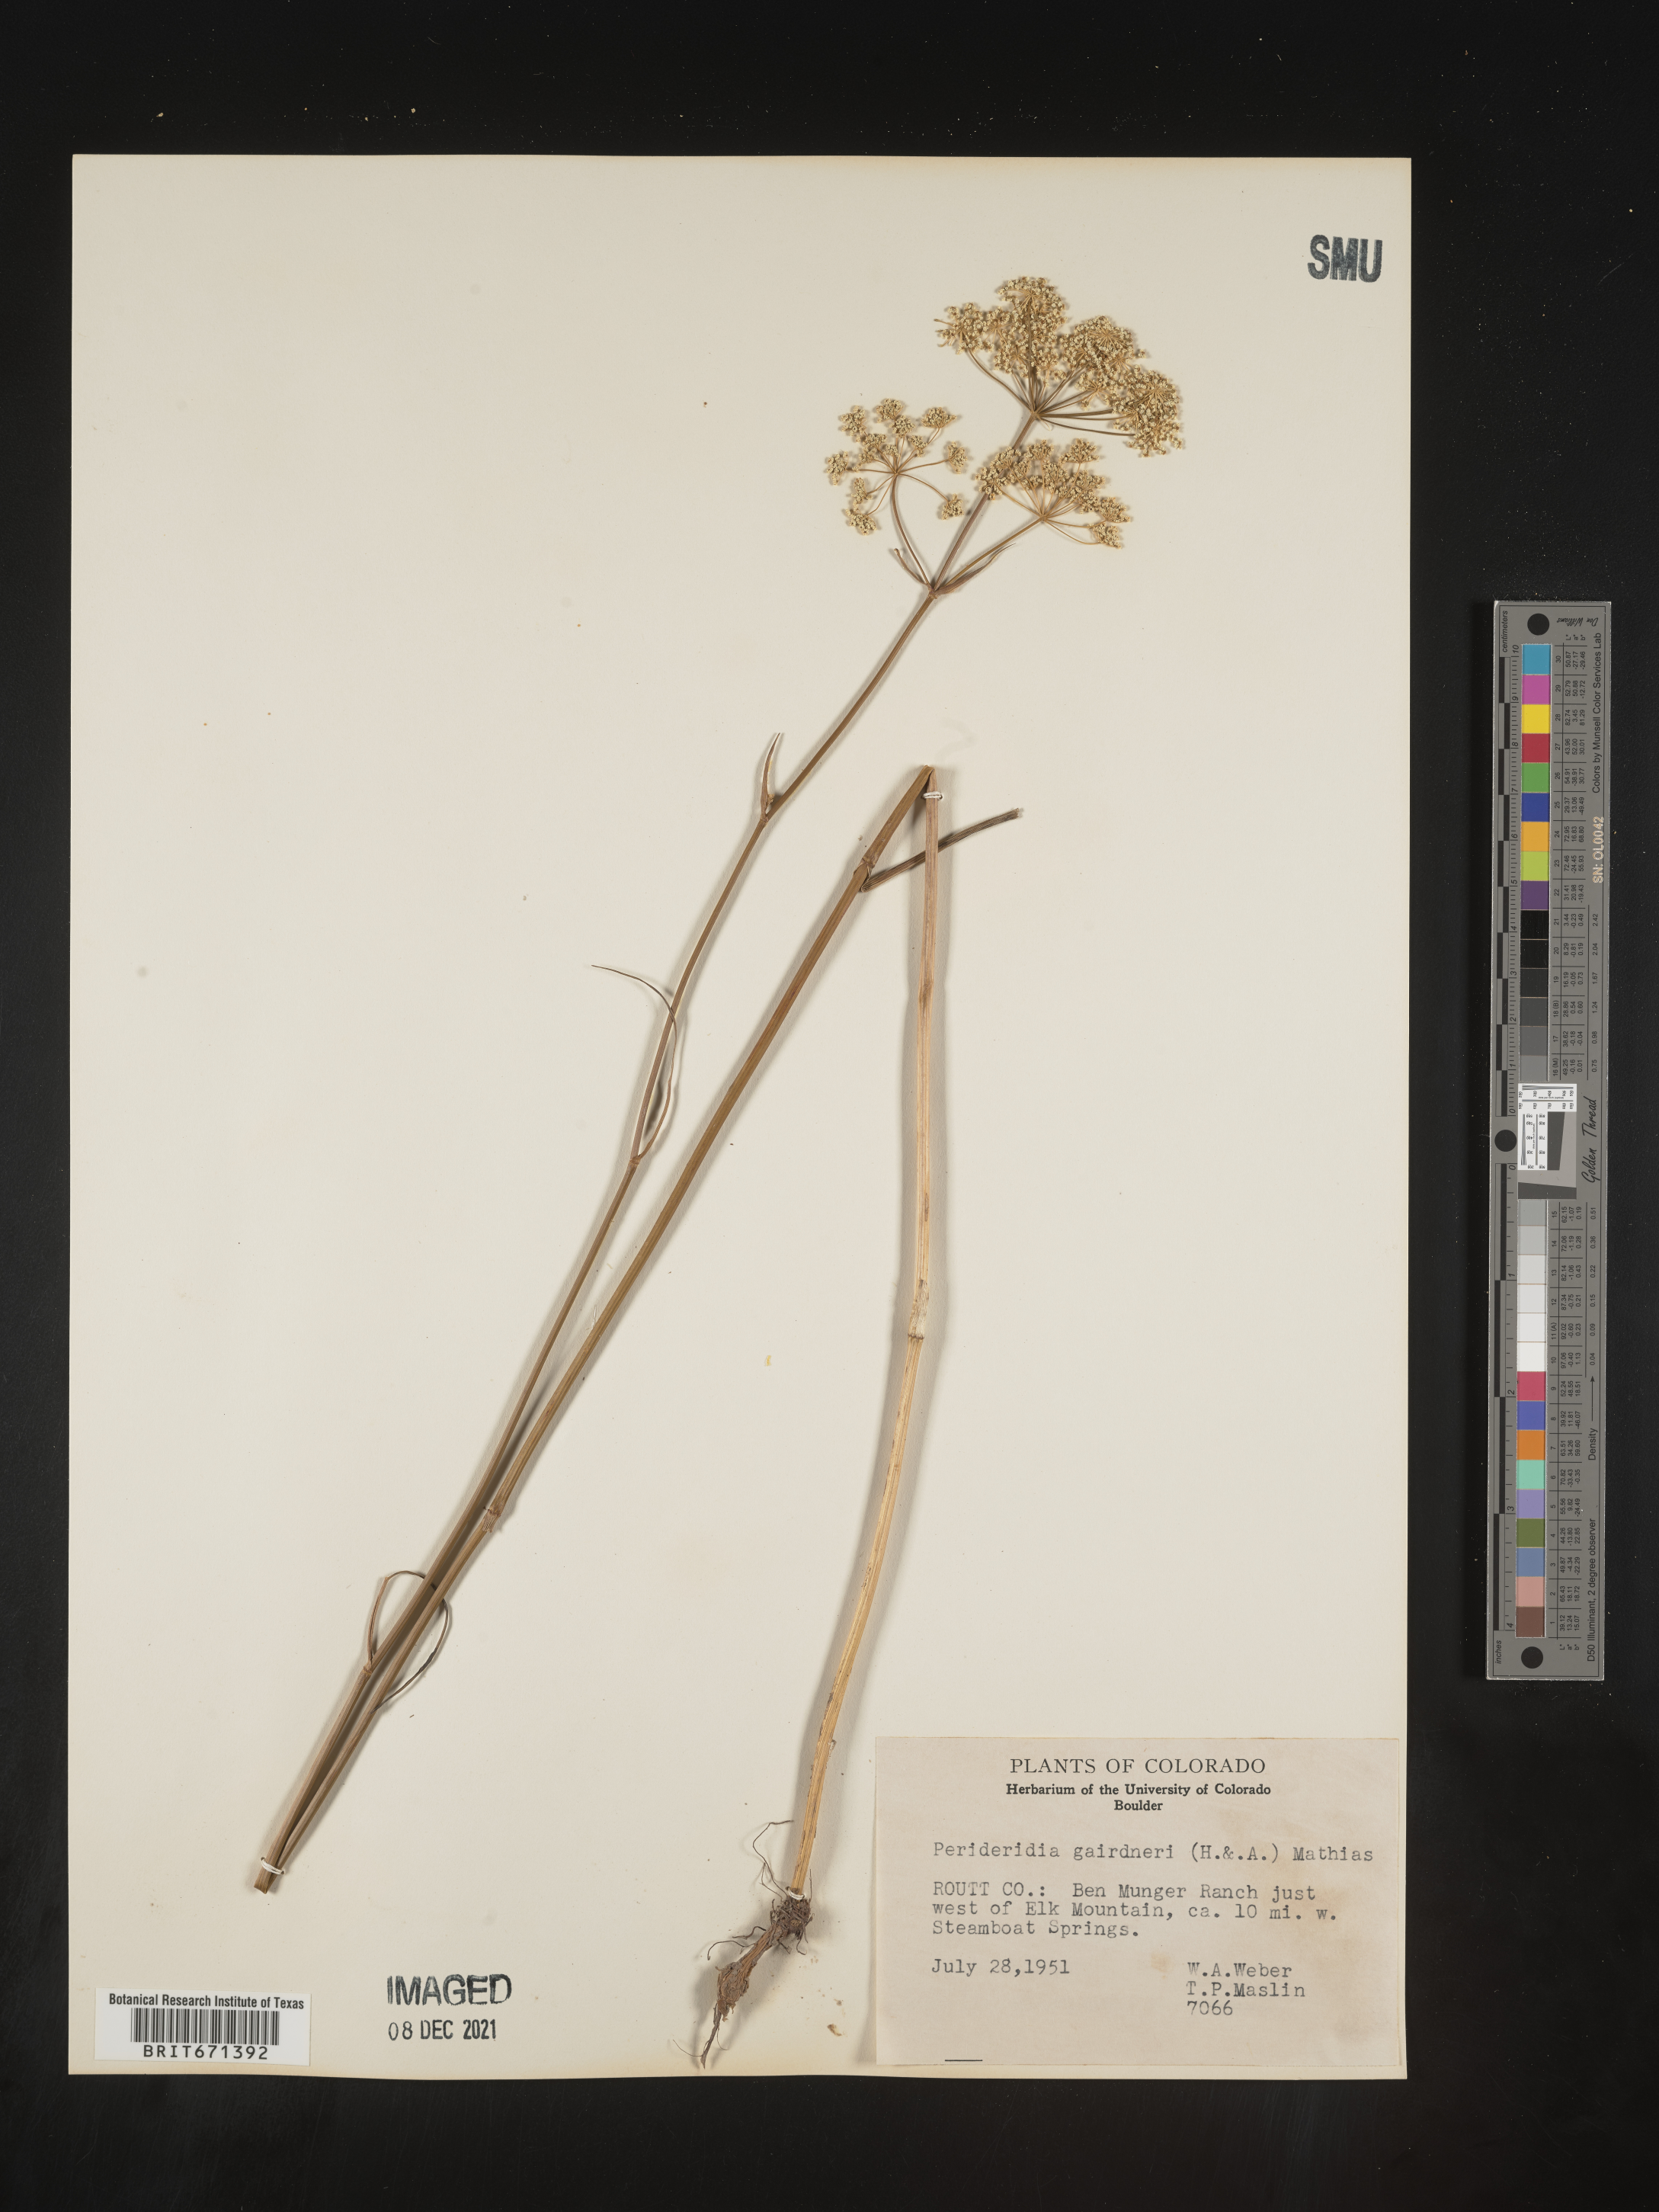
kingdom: Plantae
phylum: Tracheophyta
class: Magnoliopsida
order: Apiales
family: Apiaceae
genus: Perideridia
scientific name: Perideridia gairdneri
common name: False caraway
